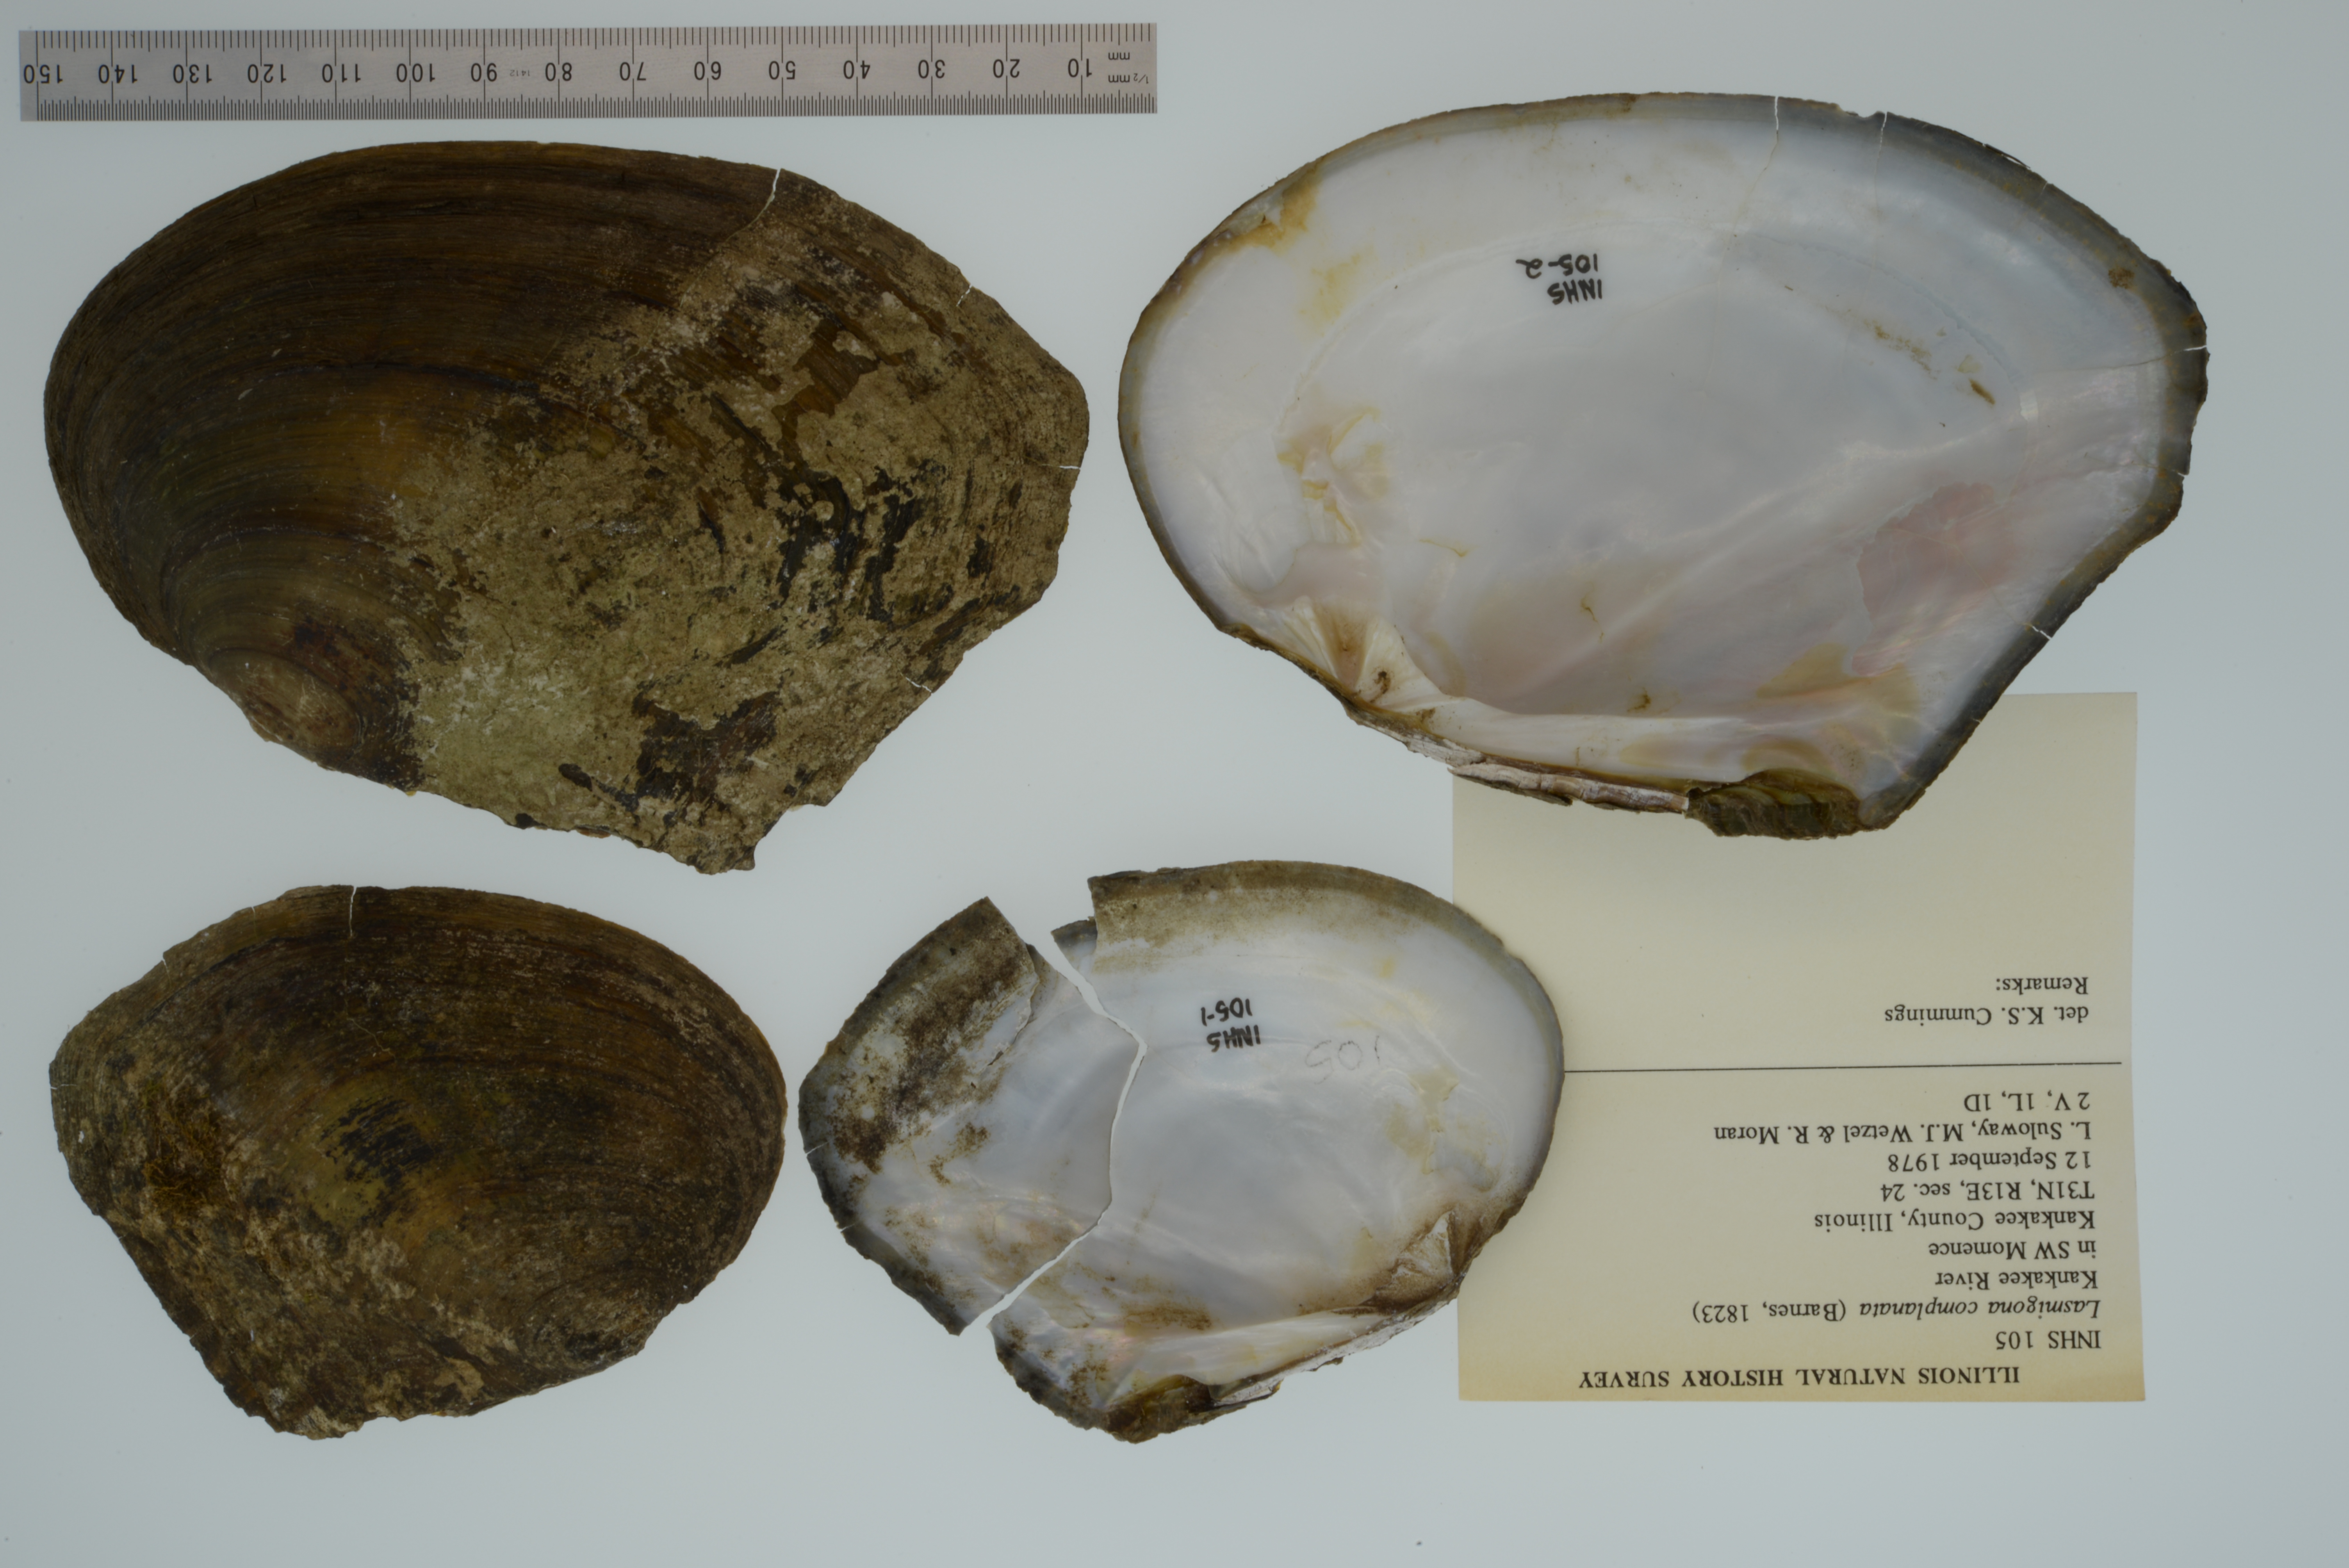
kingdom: Animalia
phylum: Mollusca
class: Bivalvia
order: Unionida
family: Unionidae
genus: Lasmigona
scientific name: Lasmigona complanata
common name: White heelsplitter
